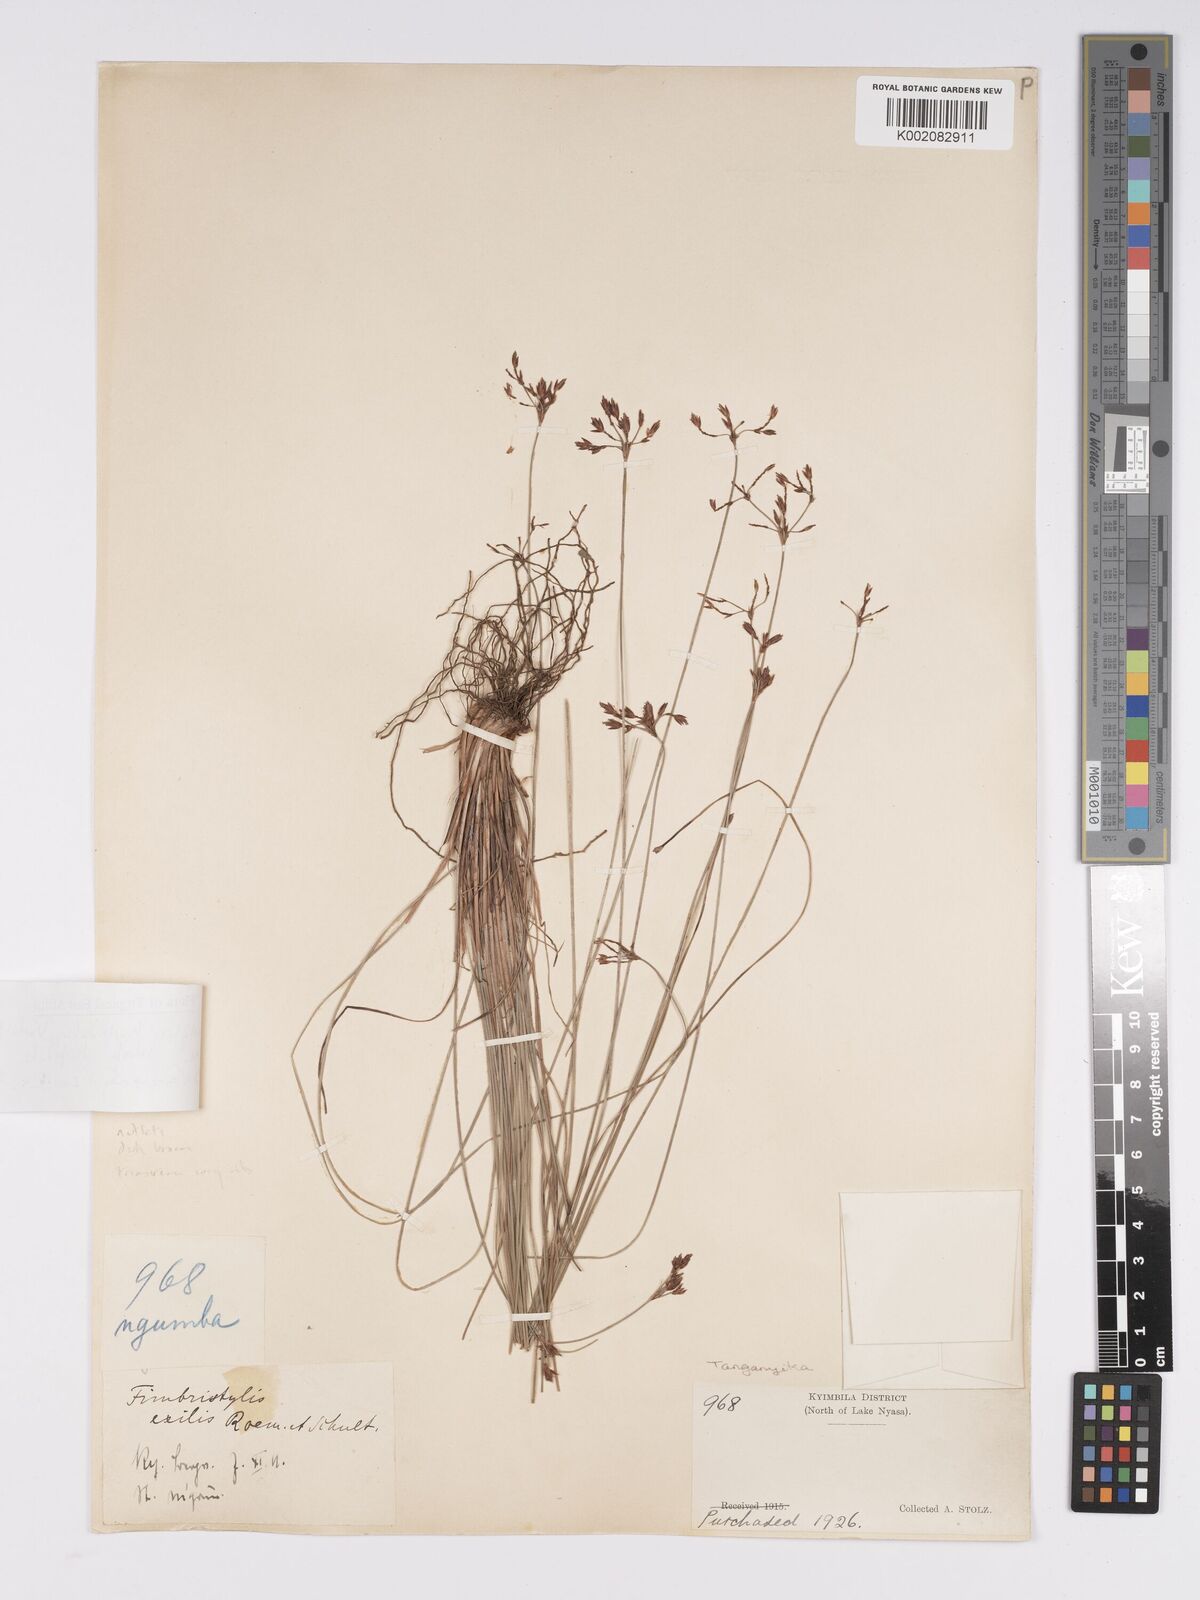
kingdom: Plantae
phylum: Tracheophyta
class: Liliopsida
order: Poales
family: Cyperaceae
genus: Bulbostylis
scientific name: Bulbostylis hispidula
